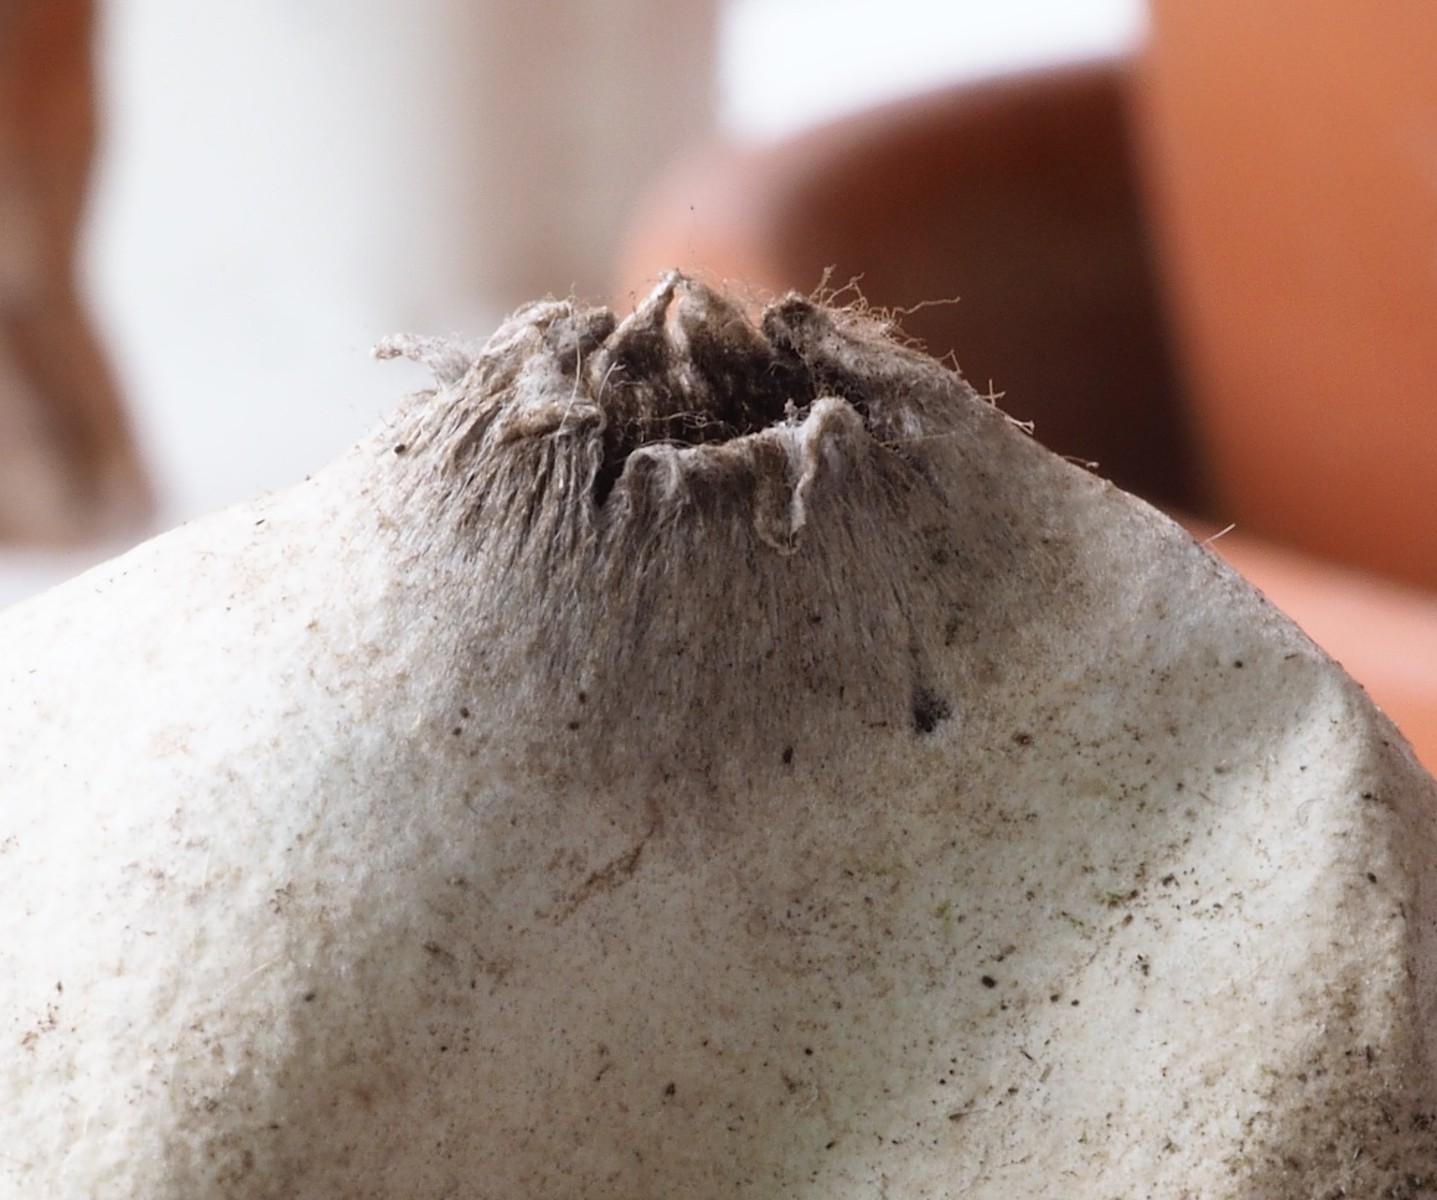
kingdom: Fungi
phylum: Basidiomycota
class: Agaricomycetes
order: Geastrales
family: Geastraceae
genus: Geastrum
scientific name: Geastrum
